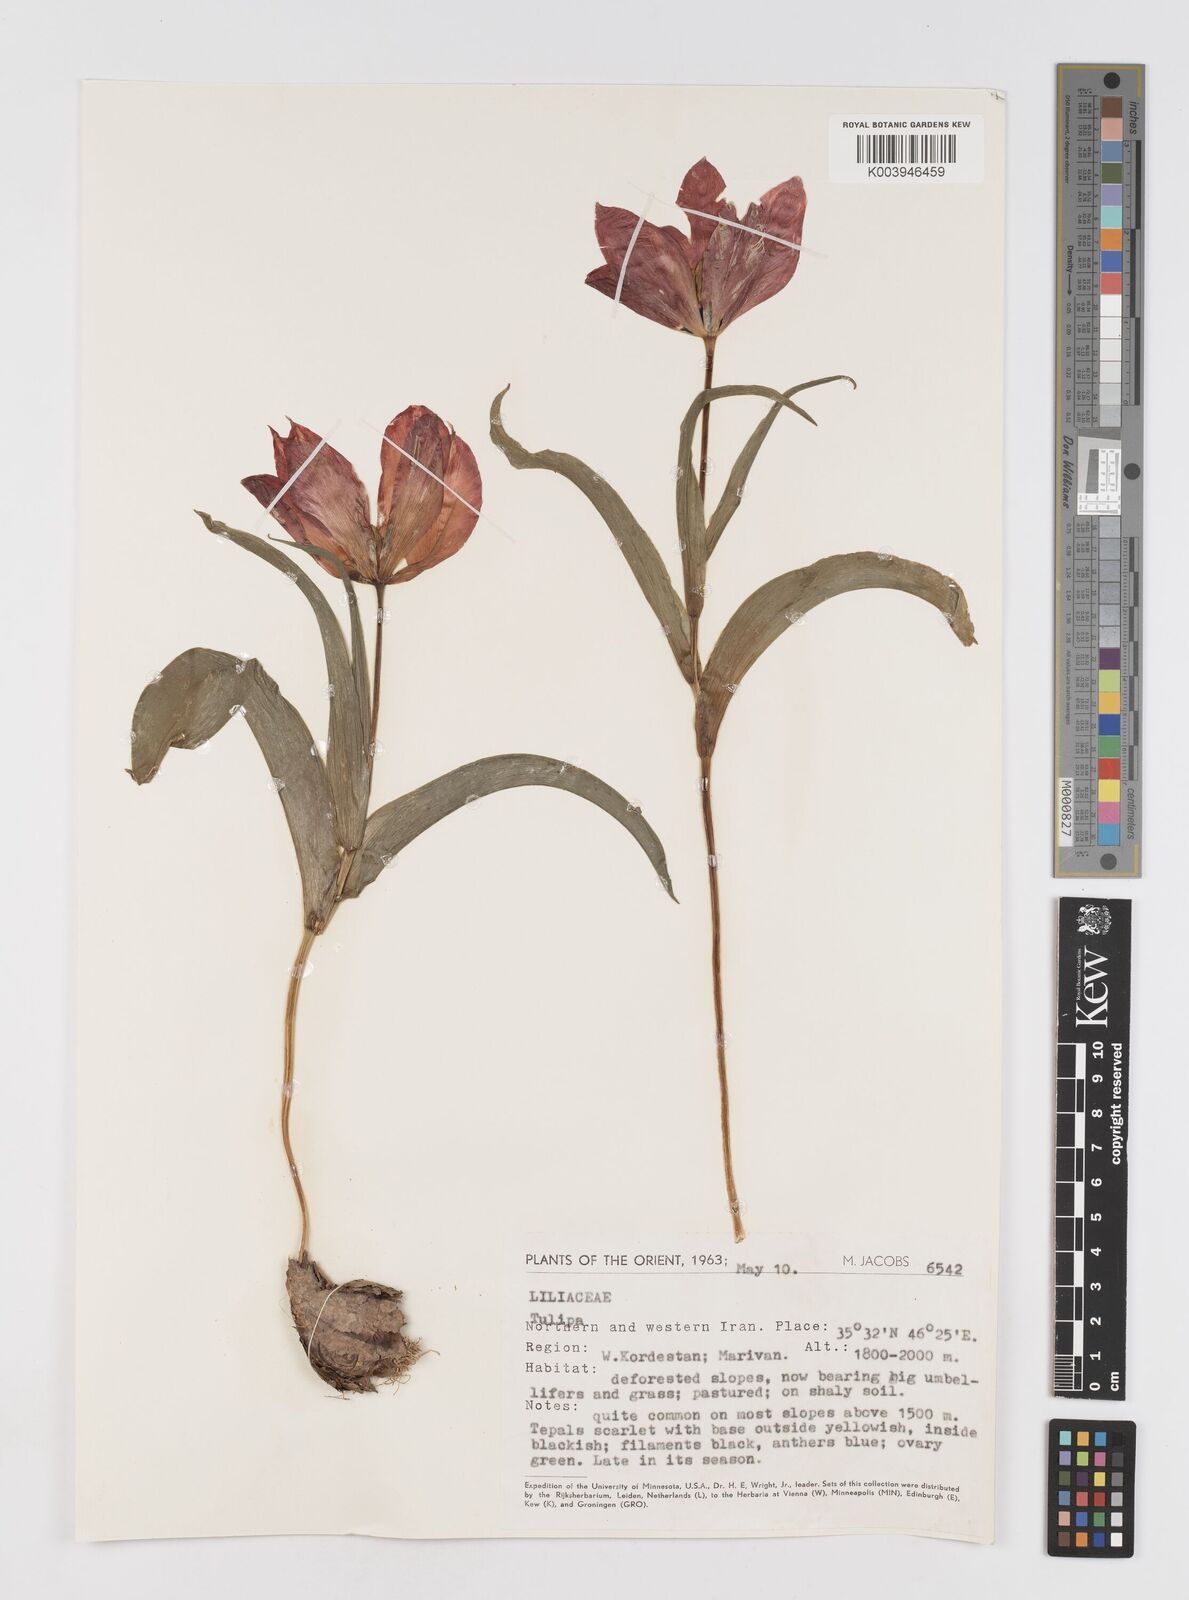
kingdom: Plantae
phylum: Tracheophyta
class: Liliopsida
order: Liliales
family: Liliaceae
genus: Tulipa
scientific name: Tulipa
